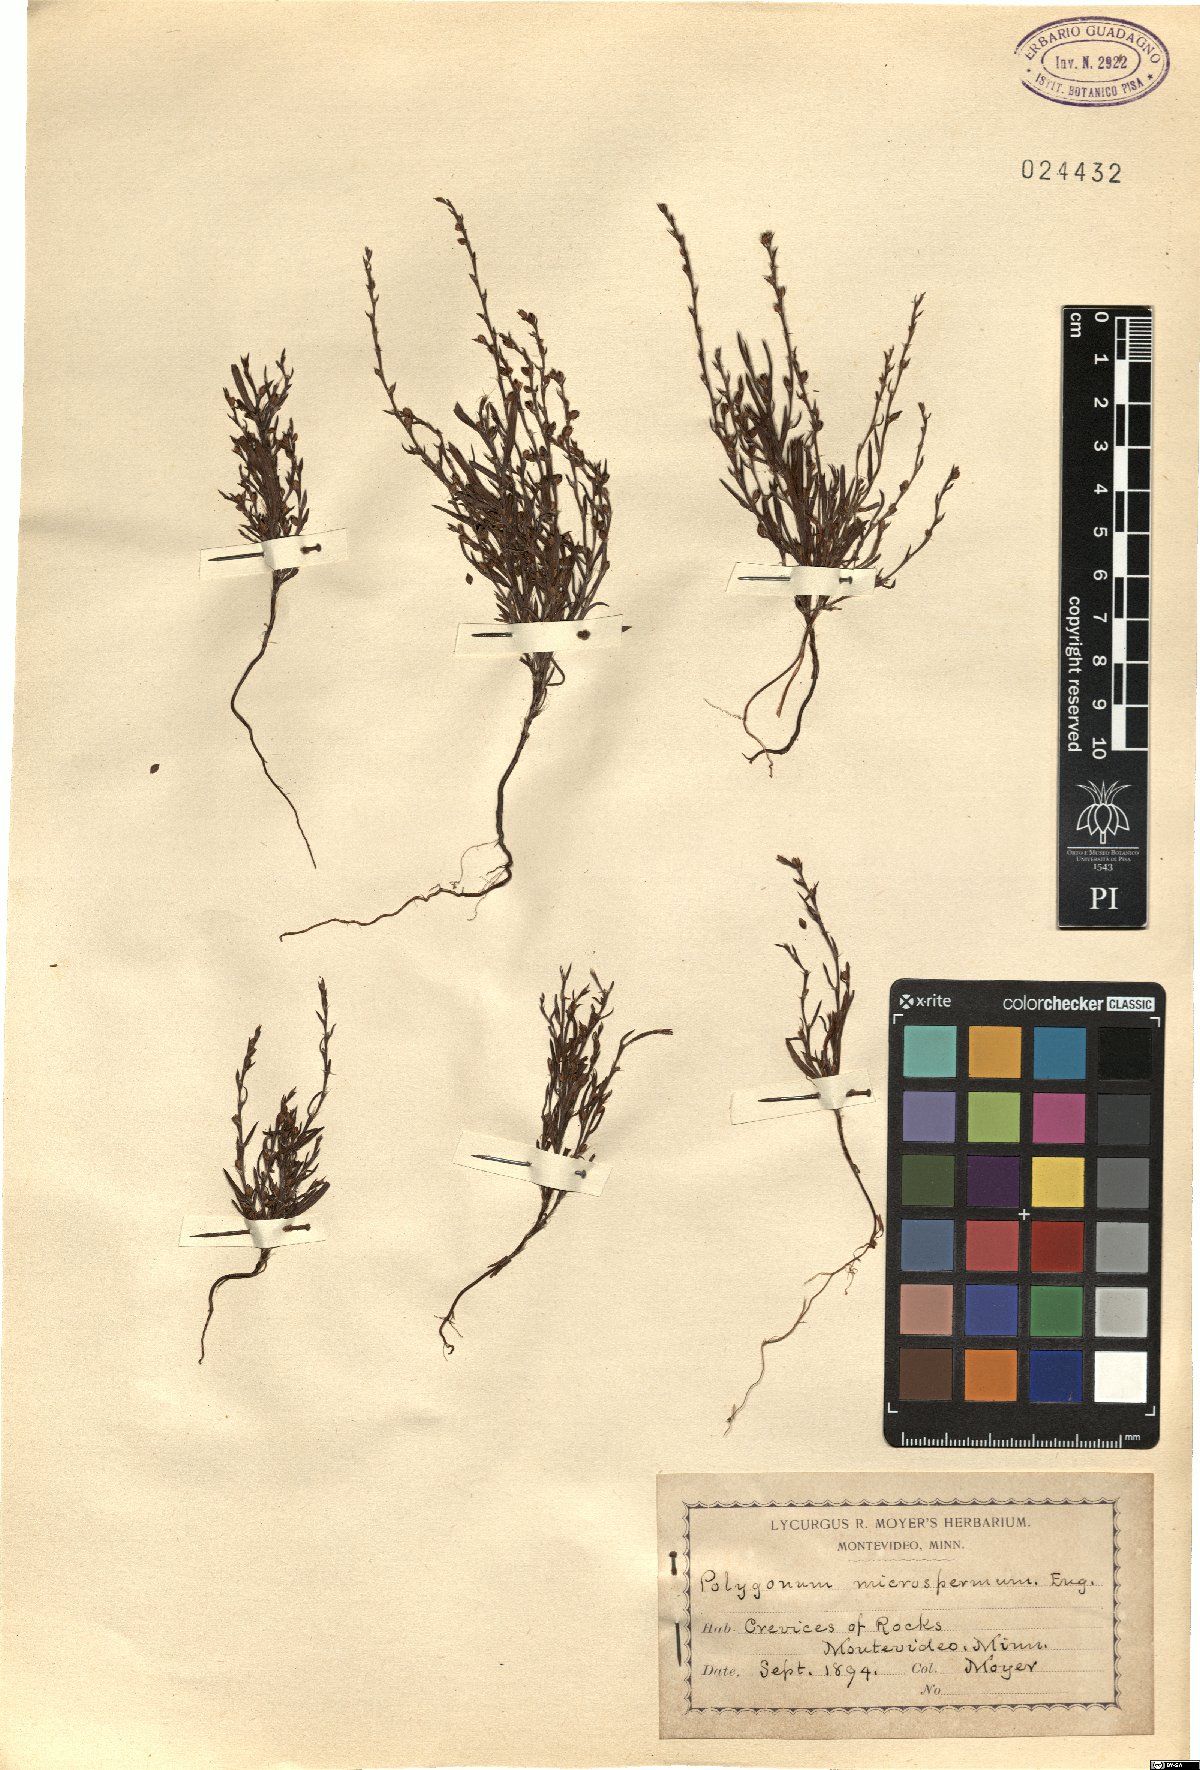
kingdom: Plantae
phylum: Tracheophyta
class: Magnoliopsida
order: Caryophyllales
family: Polygonaceae
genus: Polygonum
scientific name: Polygonum engelmannii
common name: Engelmann's knotweed
